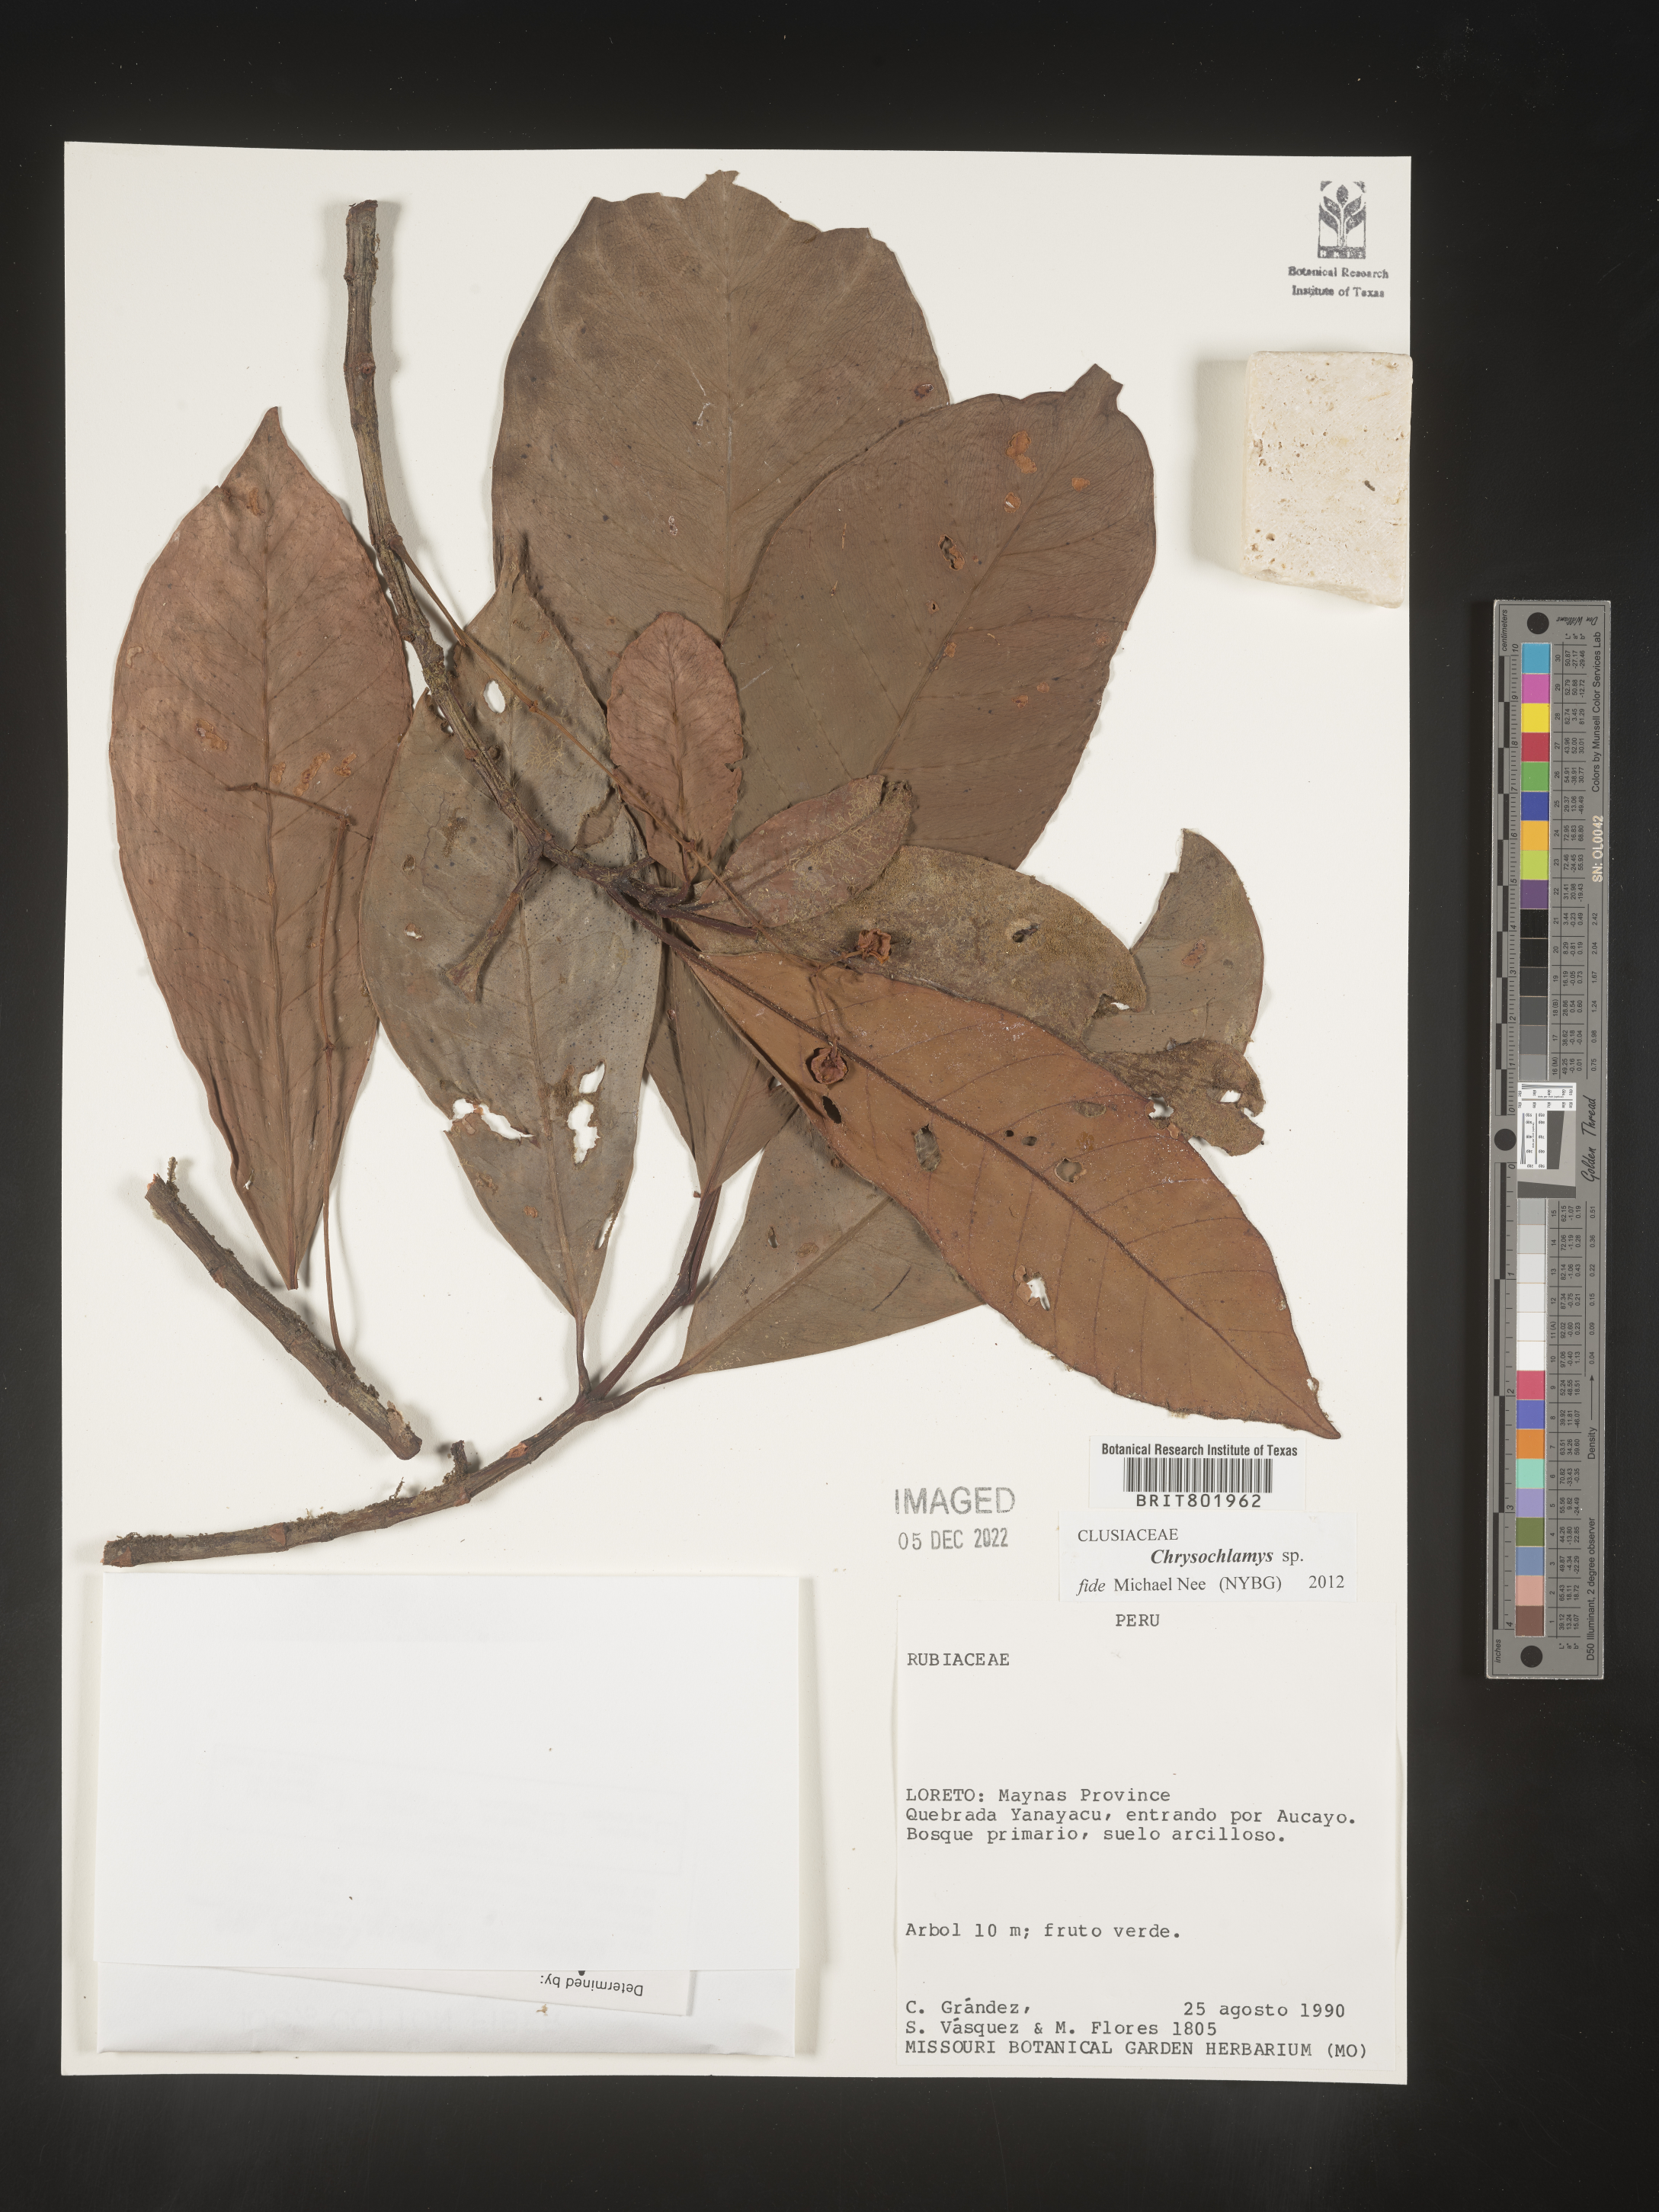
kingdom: Plantae
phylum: Tracheophyta
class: Magnoliopsida
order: Malpighiales
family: Clusiaceae
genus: Chrysochlamys
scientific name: Chrysochlamys
